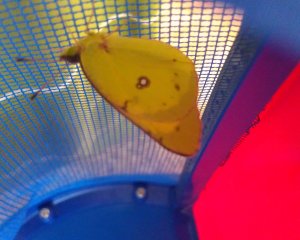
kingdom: Animalia
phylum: Arthropoda
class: Insecta
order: Lepidoptera
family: Pieridae
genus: Colias
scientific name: Colias philodice
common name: Clouded Sulphur
